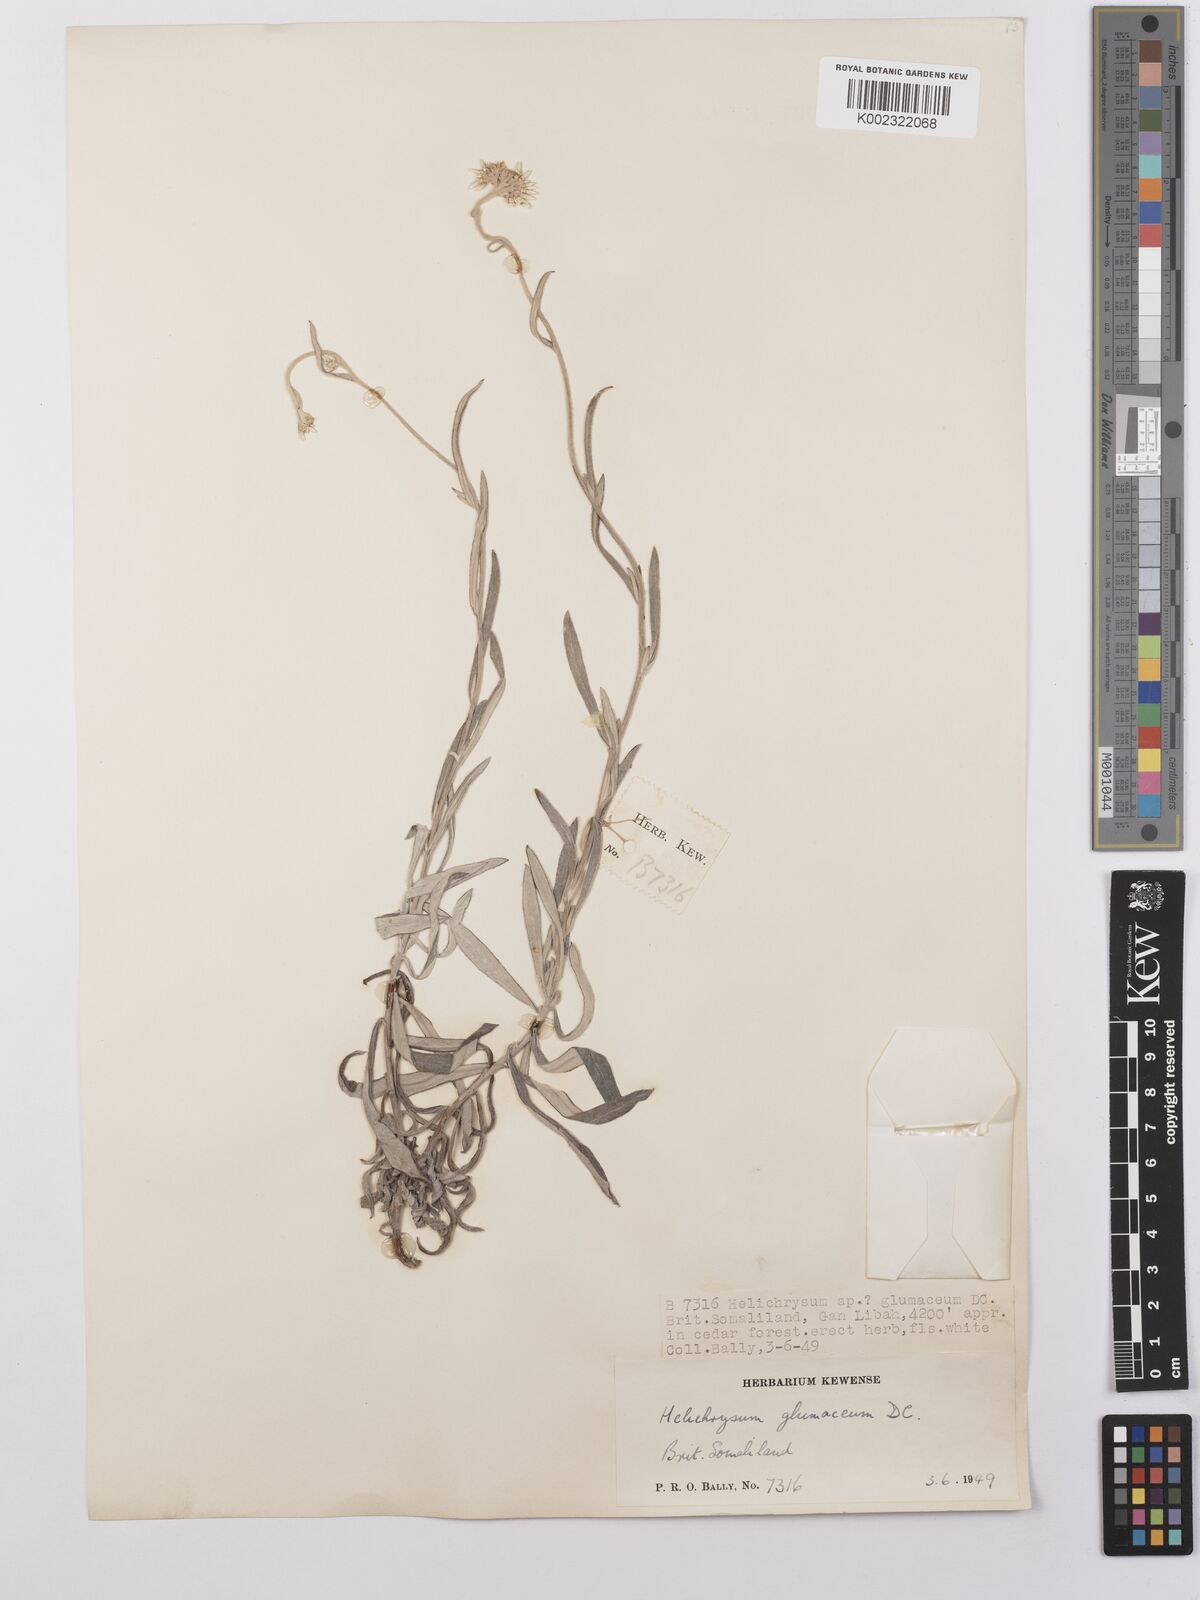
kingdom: Plantae
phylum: Tracheophyta
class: Magnoliopsida
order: Asterales
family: Asteraceae
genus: Helichrysum
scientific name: Helichrysum glumaceum
